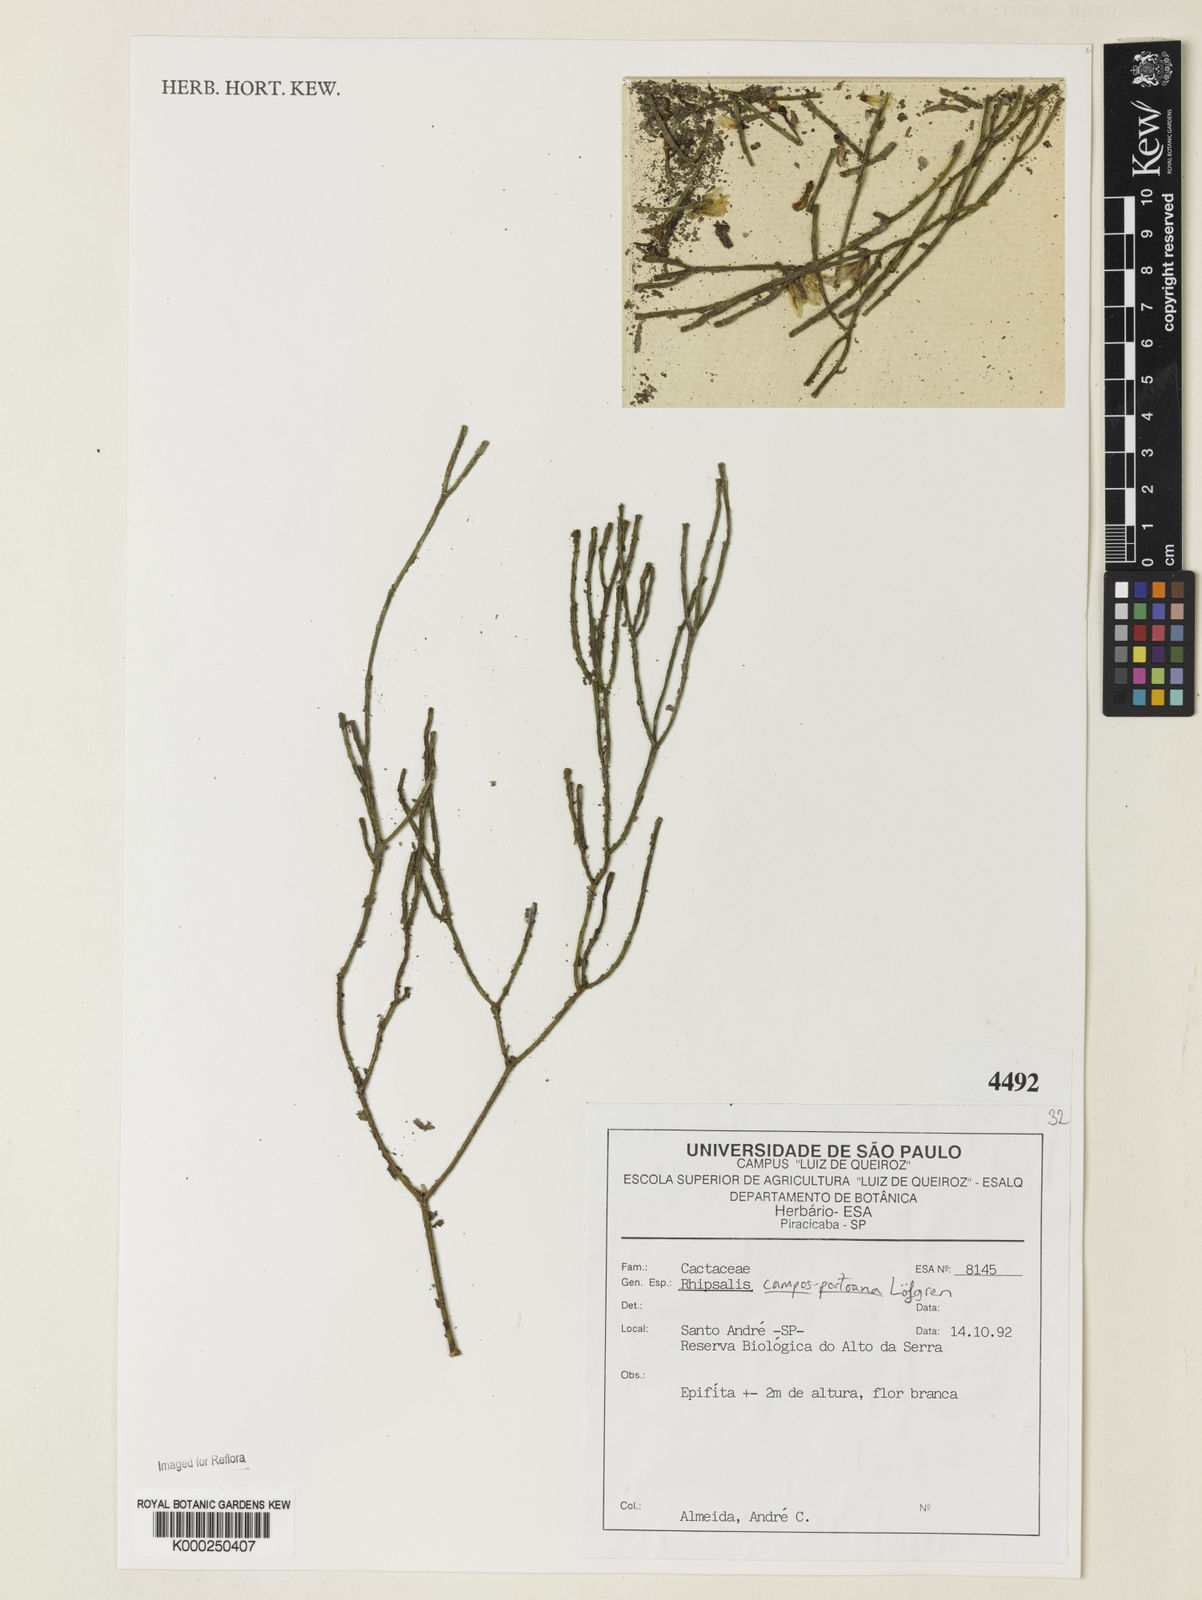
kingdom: Plantae
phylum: Tracheophyta
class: Magnoliopsida
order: Caryophyllales
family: Cactaceae
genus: Rhipsalis
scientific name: Rhipsalis
